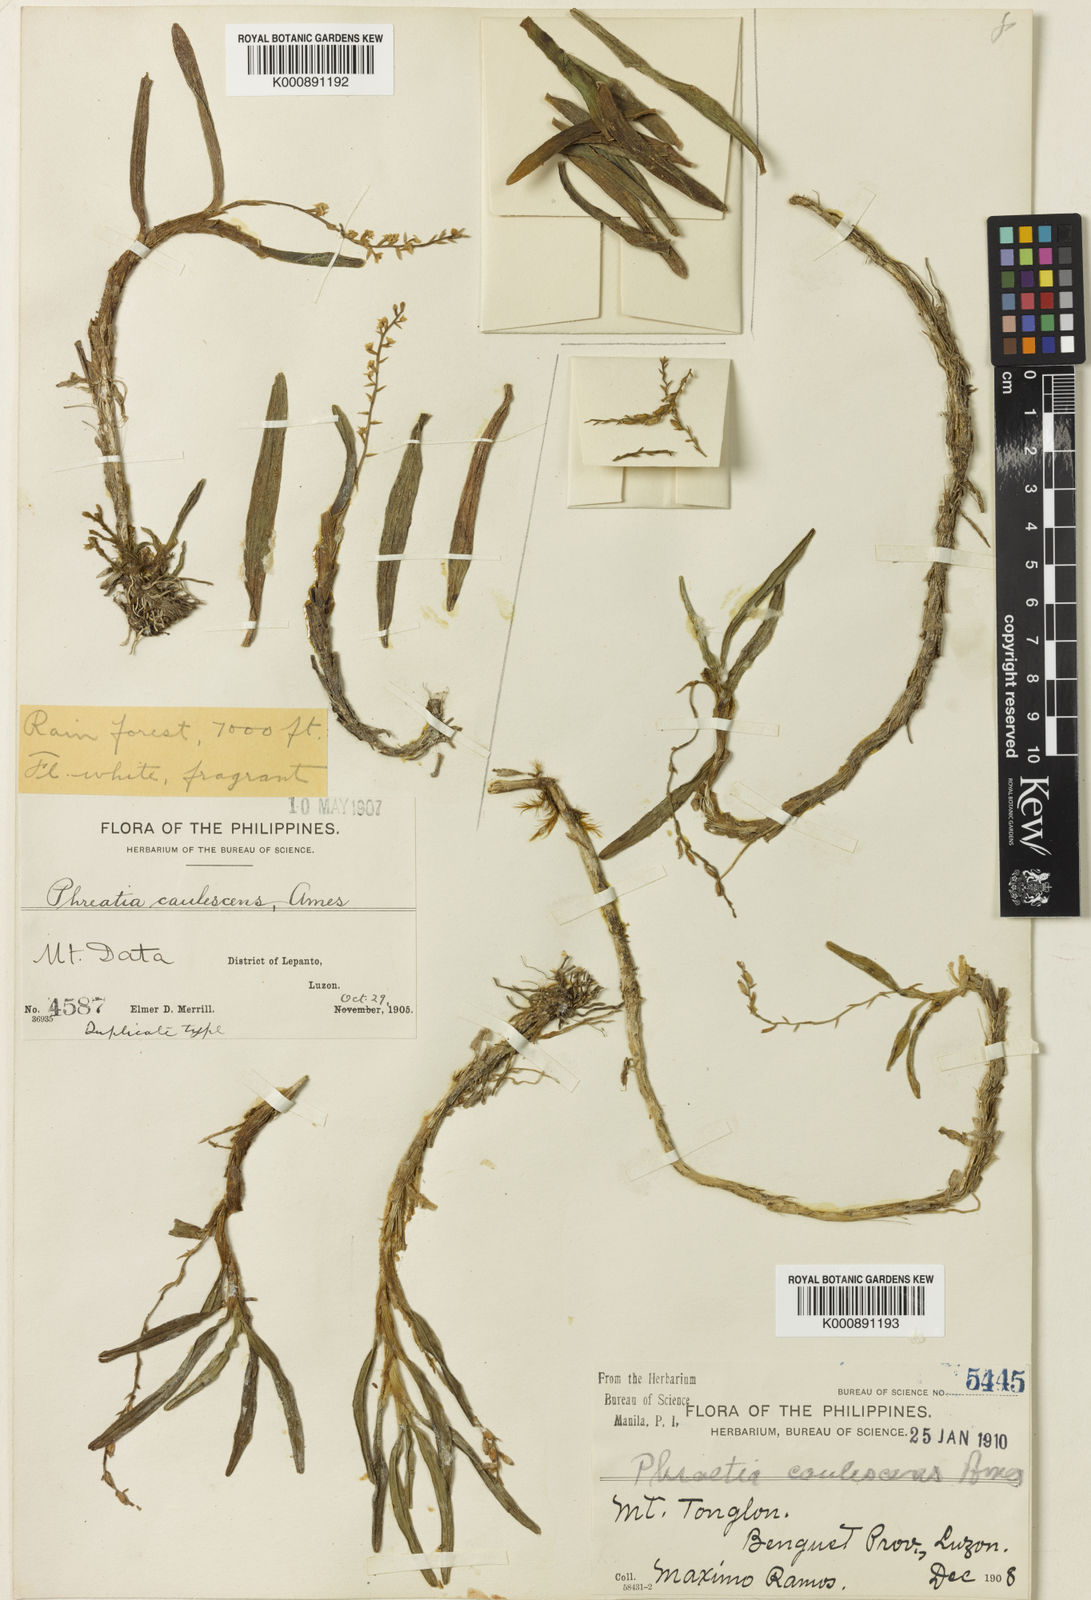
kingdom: Plantae
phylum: Tracheophyta
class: Liliopsida
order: Asparagales
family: Orchidaceae
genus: Phreatia
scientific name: Phreatia caulescens
